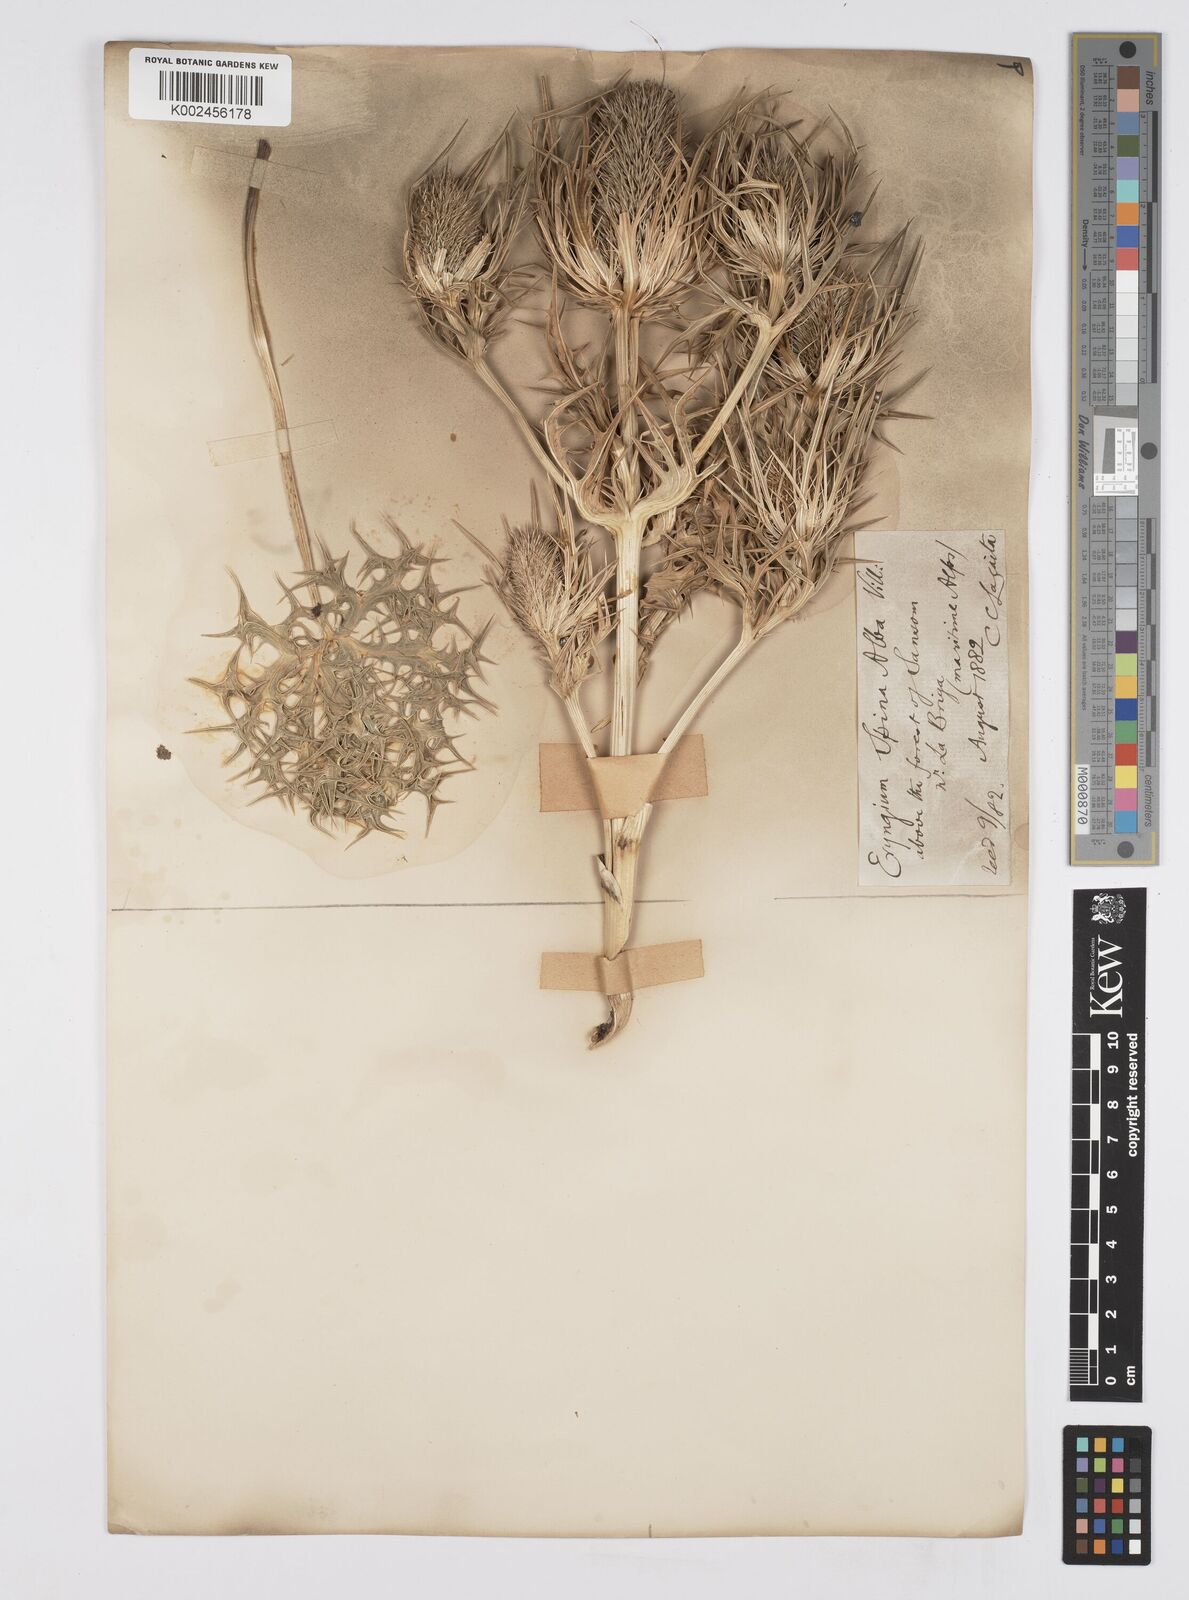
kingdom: Plantae
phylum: Tracheophyta
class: Magnoliopsida
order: Apiales
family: Apiaceae
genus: Eryngium
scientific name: Eryngium spinalba
